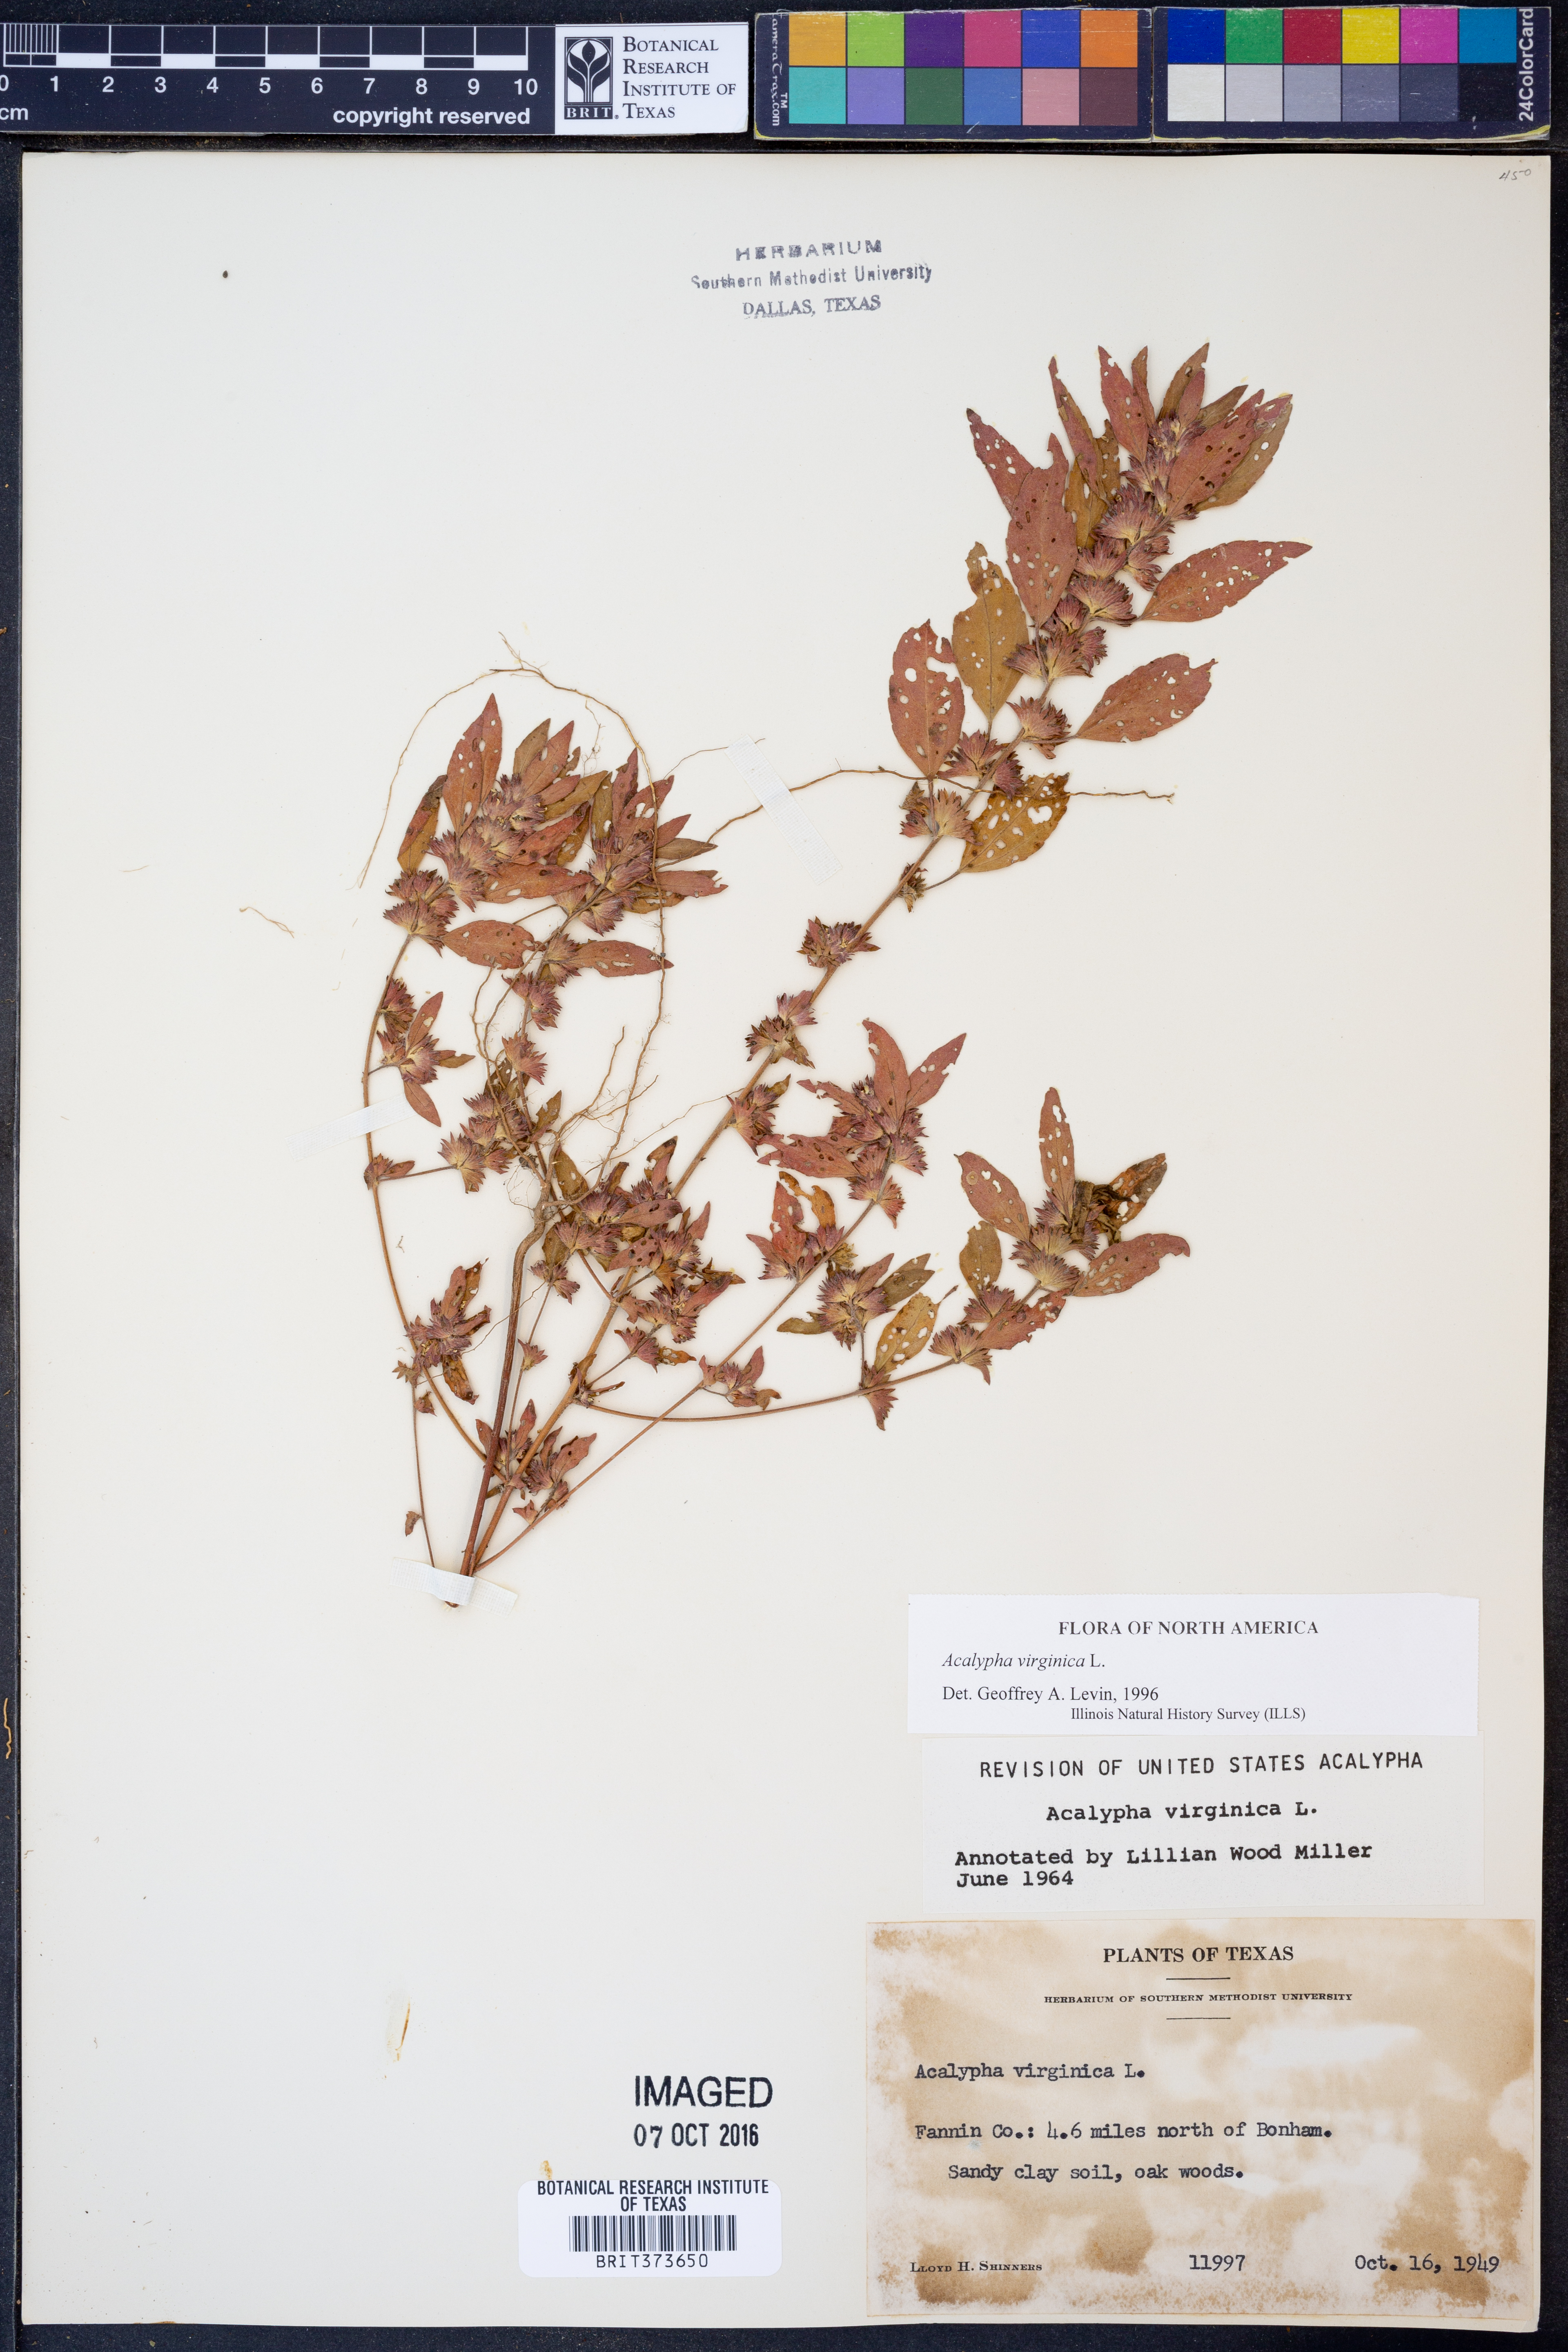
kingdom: Plantae
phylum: Tracheophyta
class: Magnoliopsida
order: Malpighiales
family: Euphorbiaceae
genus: Acalypha
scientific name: Acalypha virginica
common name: Virginia copperleaf
